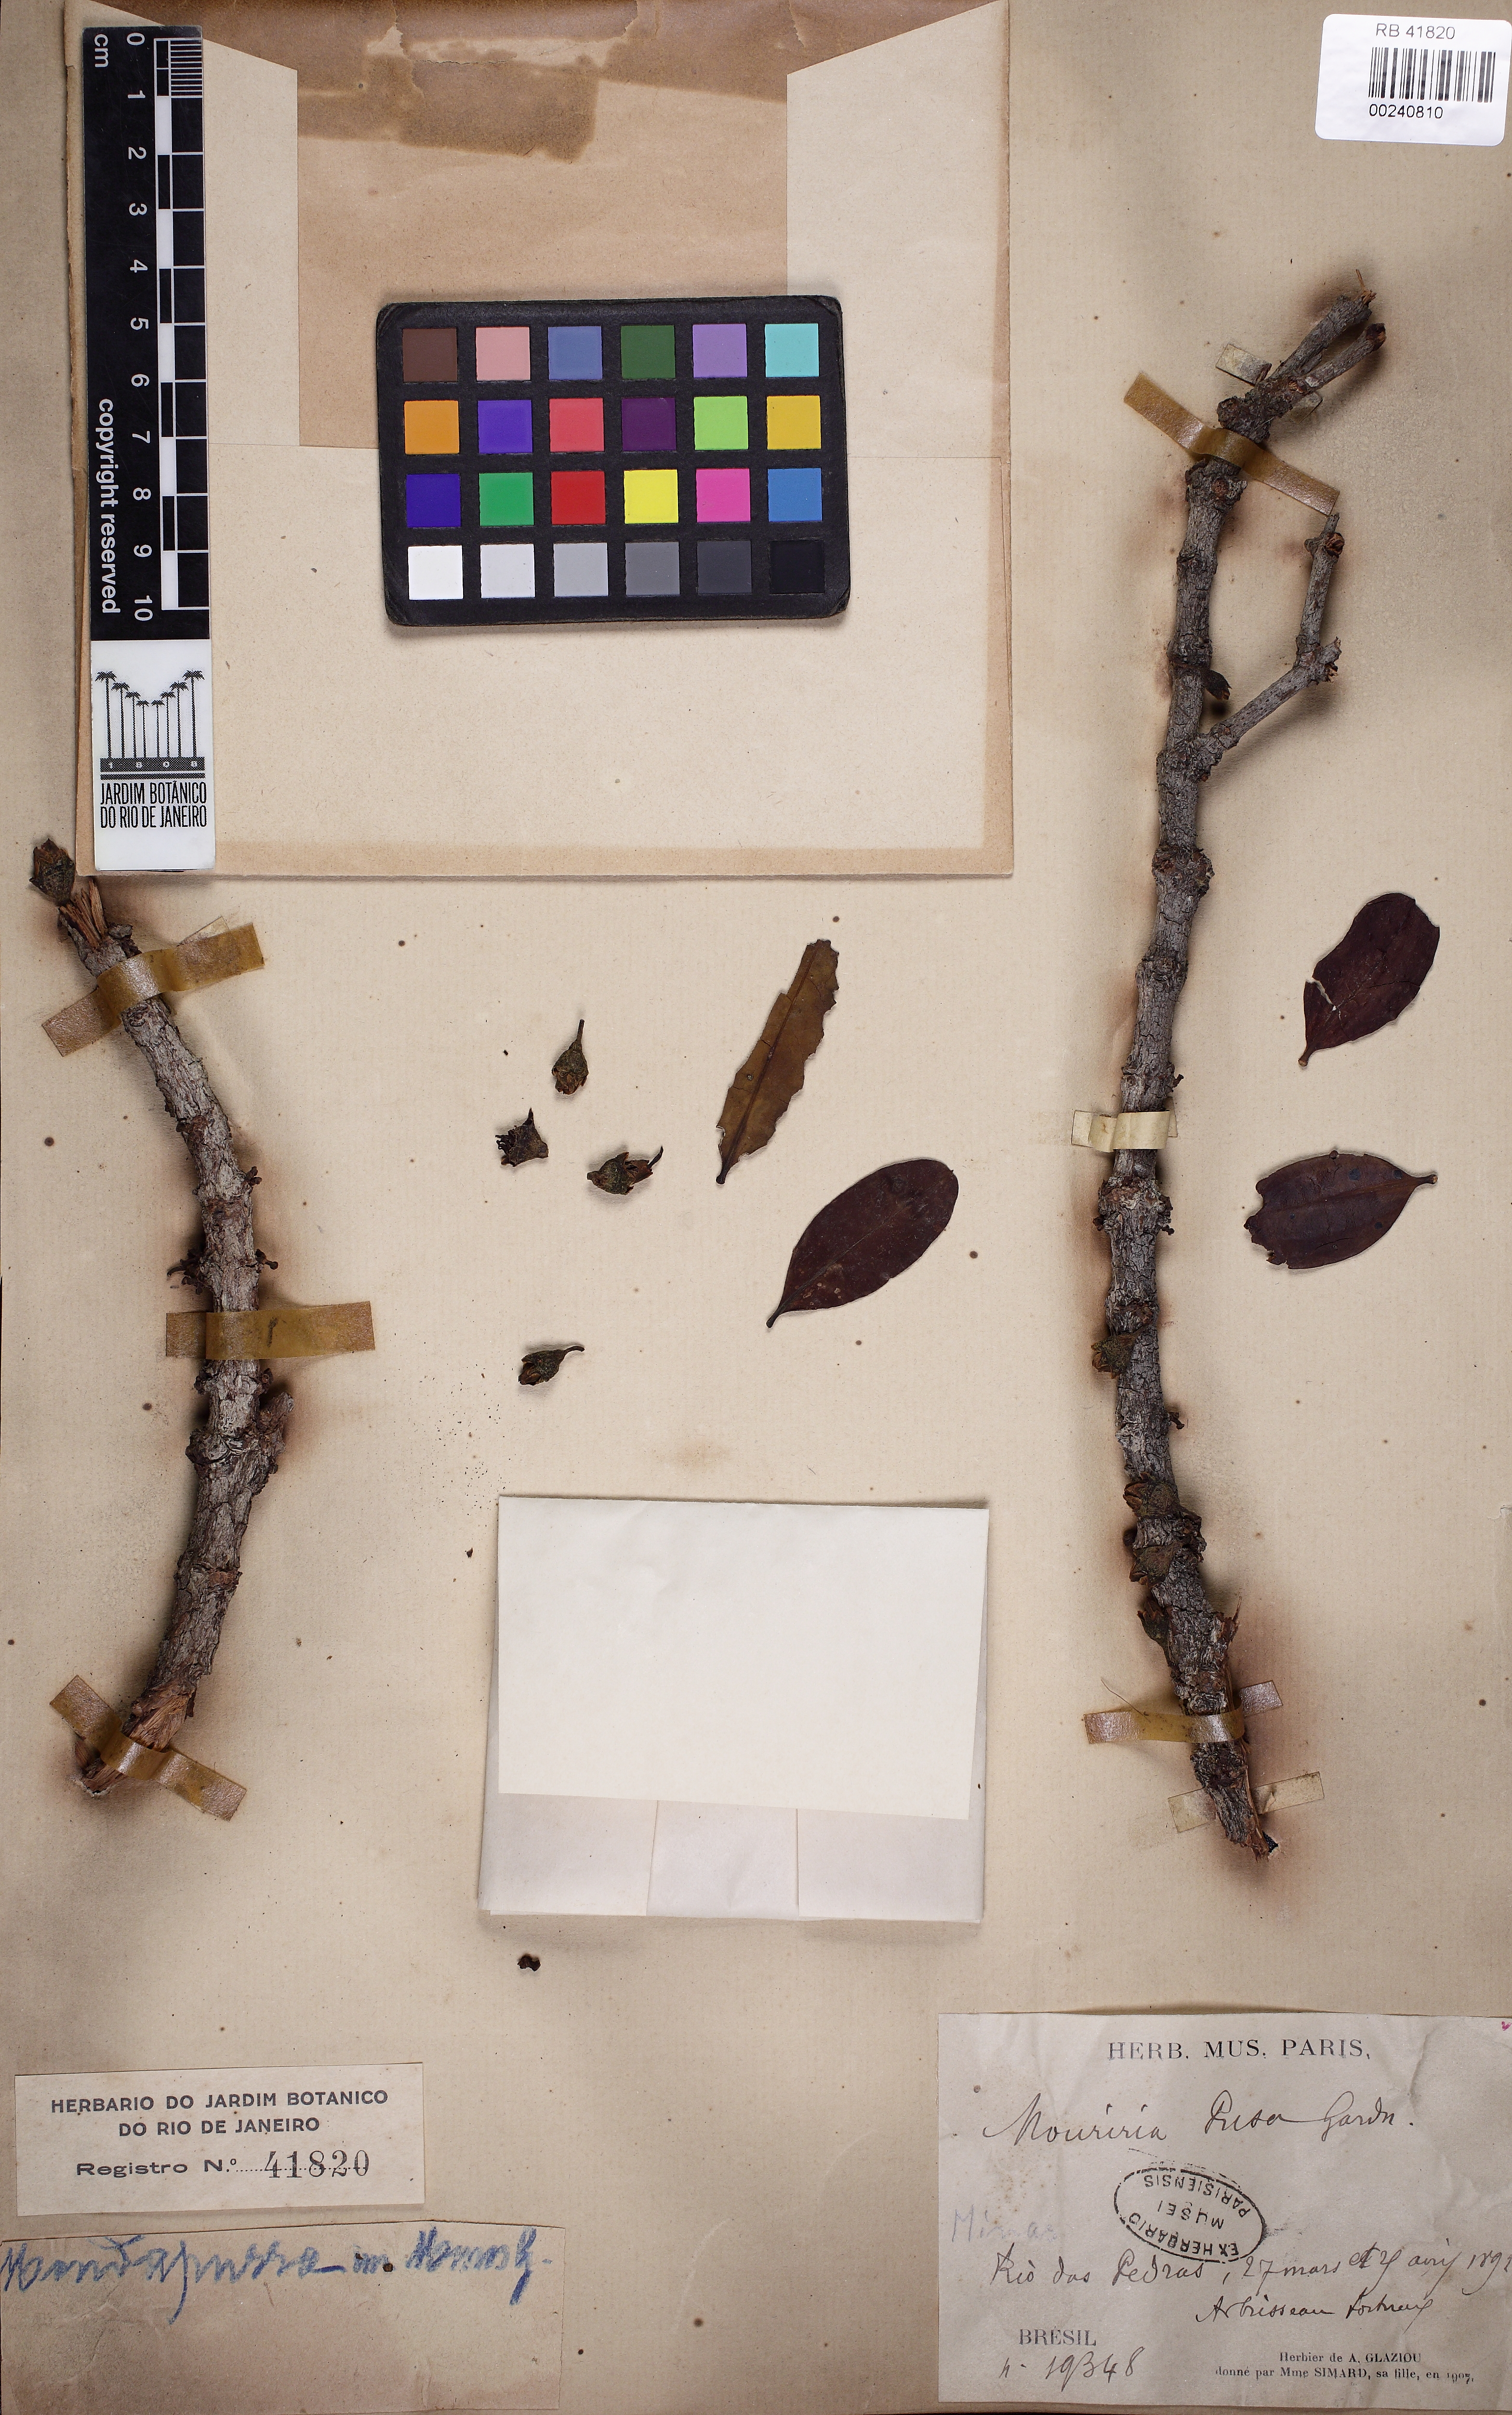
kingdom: Plantae
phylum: Tracheophyta
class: Magnoliopsida
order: Myrtales
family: Melastomataceae
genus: Mouriri
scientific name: Mouriri pusa
